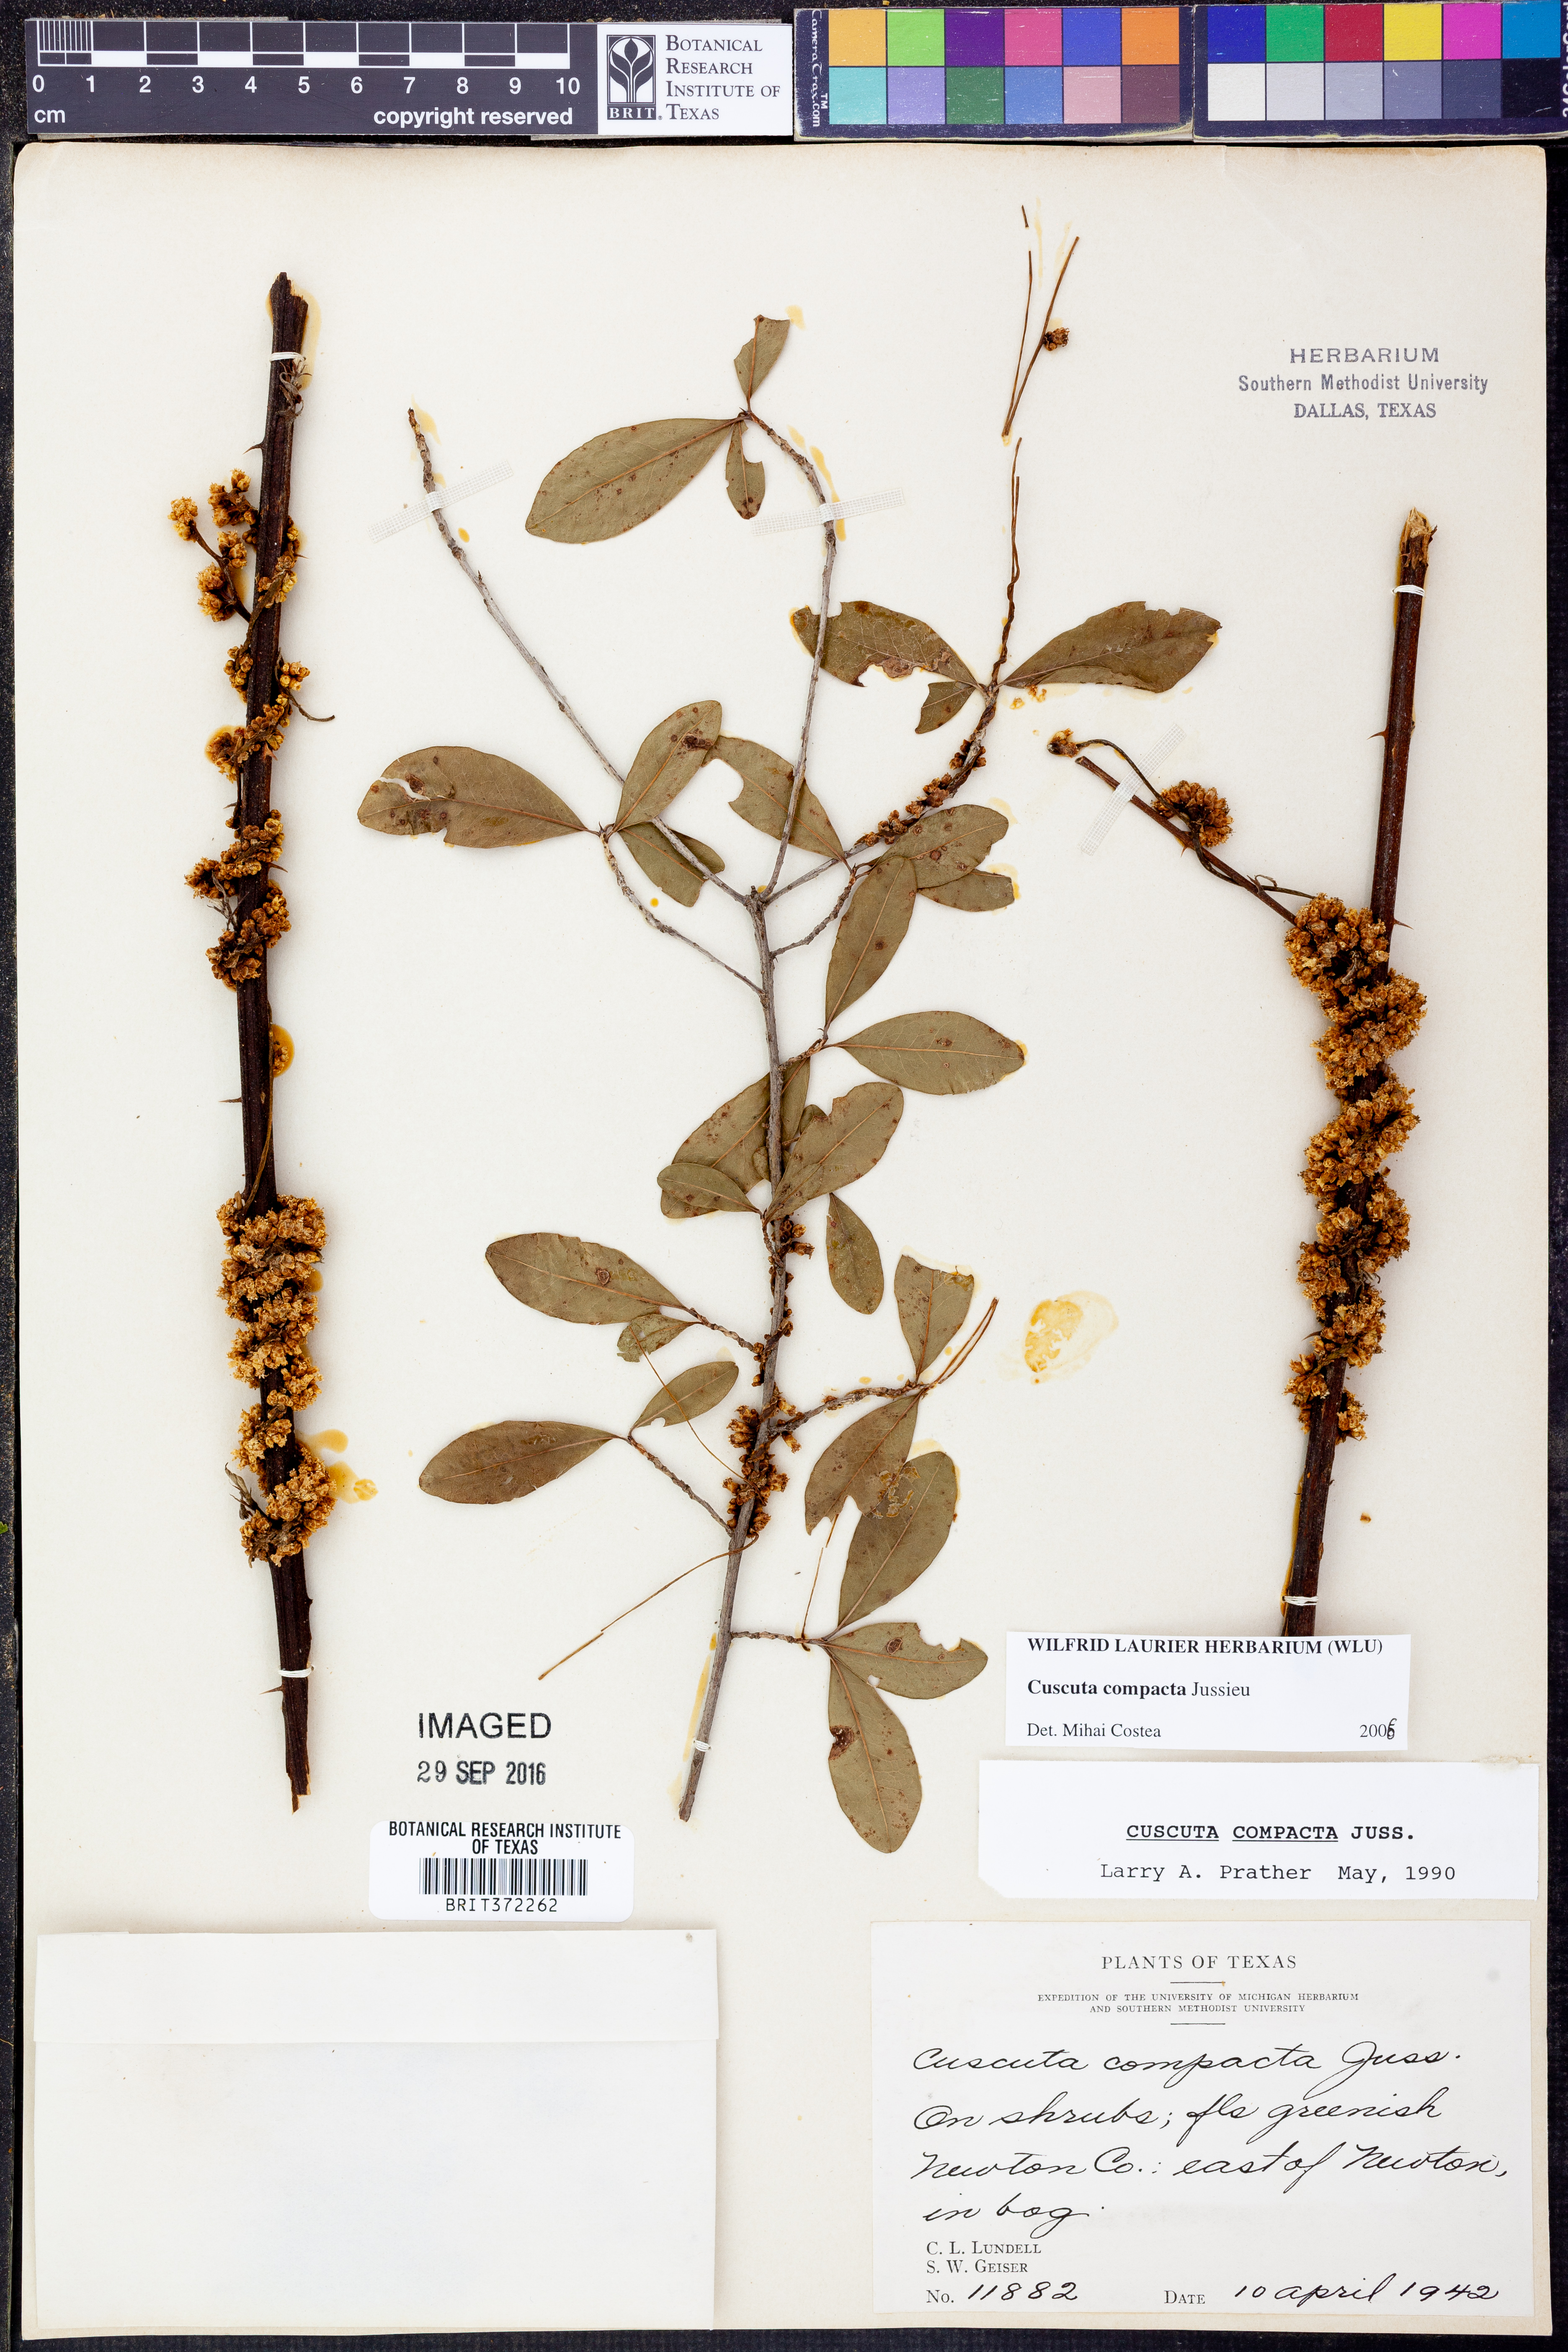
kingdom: Plantae
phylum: Tracheophyta
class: Magnoliopsida
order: Solanales
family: Convolvulaceae
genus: Cuscuta
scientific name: Cuscuta compacta
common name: Compact dodder
